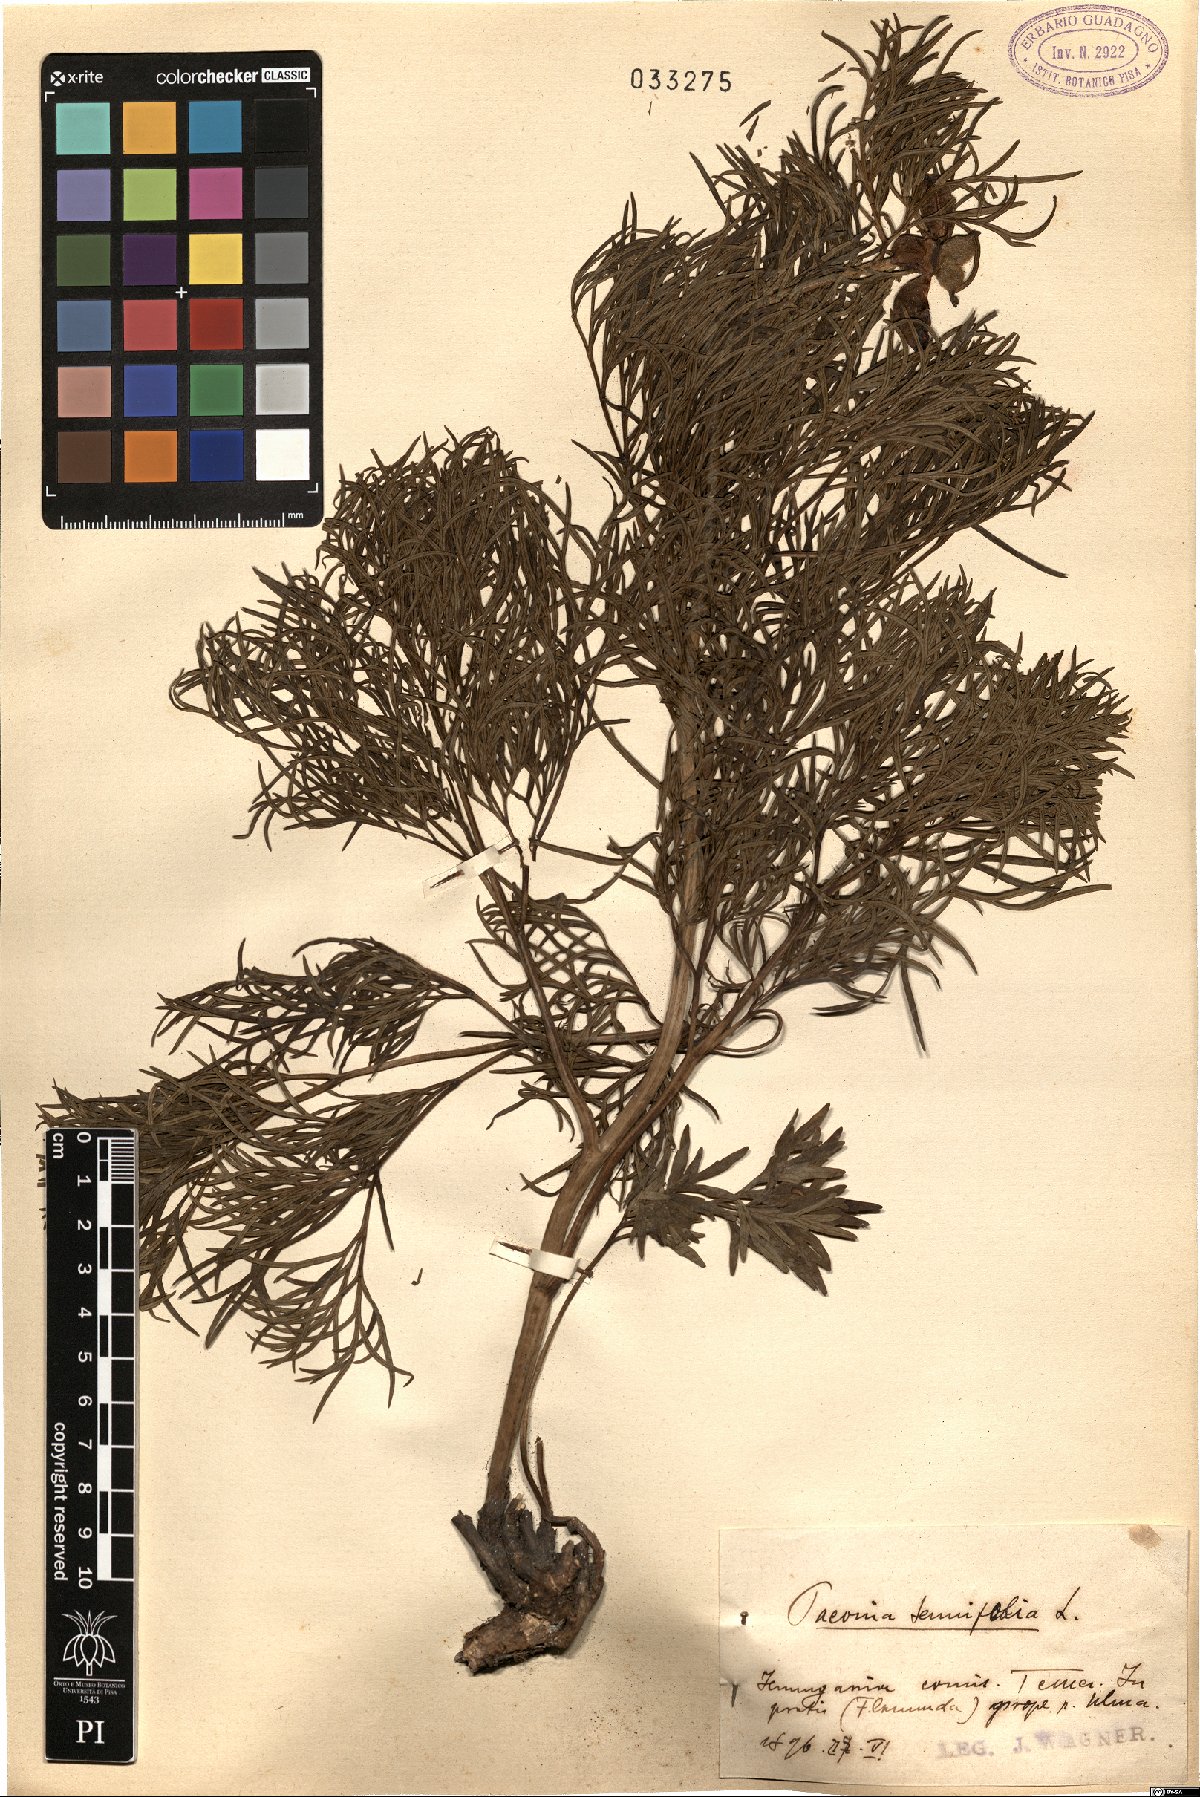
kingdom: Plantae
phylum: Tracheophyta
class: Magnoliopsida
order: Saxifragales
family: Paeoniaceae
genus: Paeonia
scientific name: Paeonia tenuifolia
